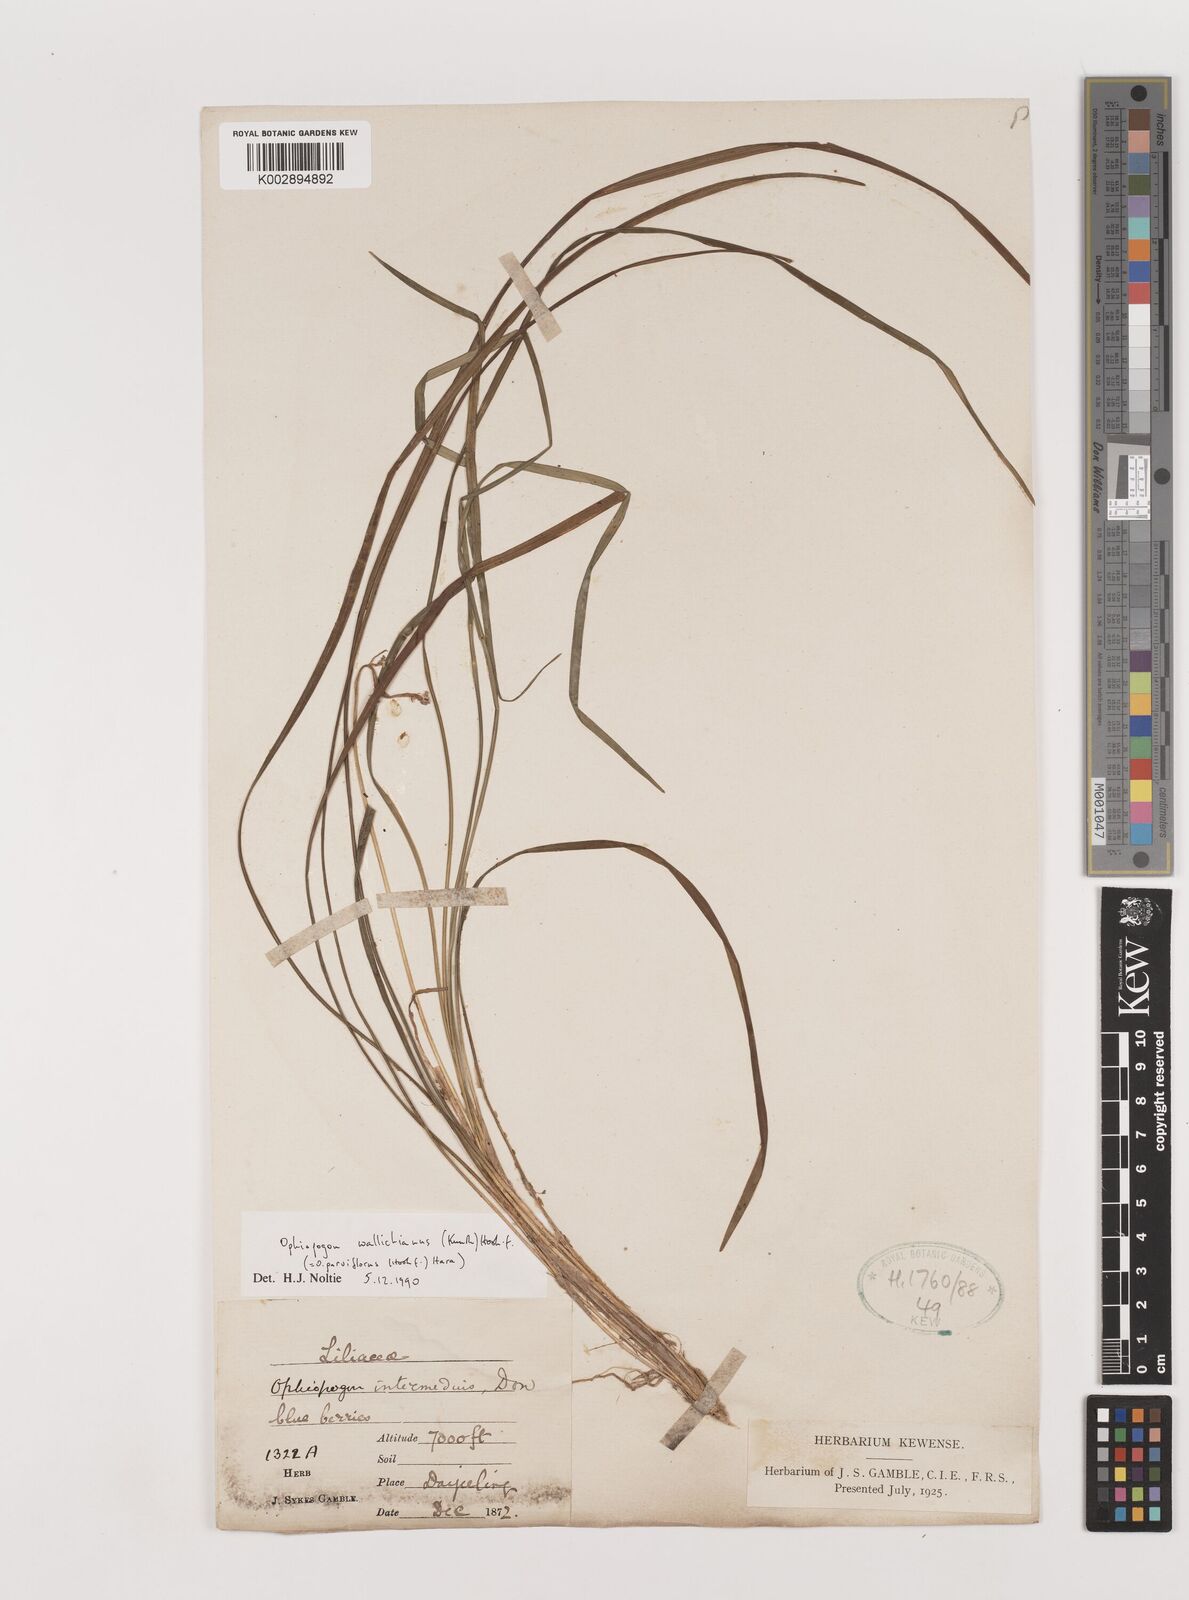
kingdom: Plantae
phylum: Tracheophyta
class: Liliopsida
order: Asparagales
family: Asparagaceae
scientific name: Asparagaceae
